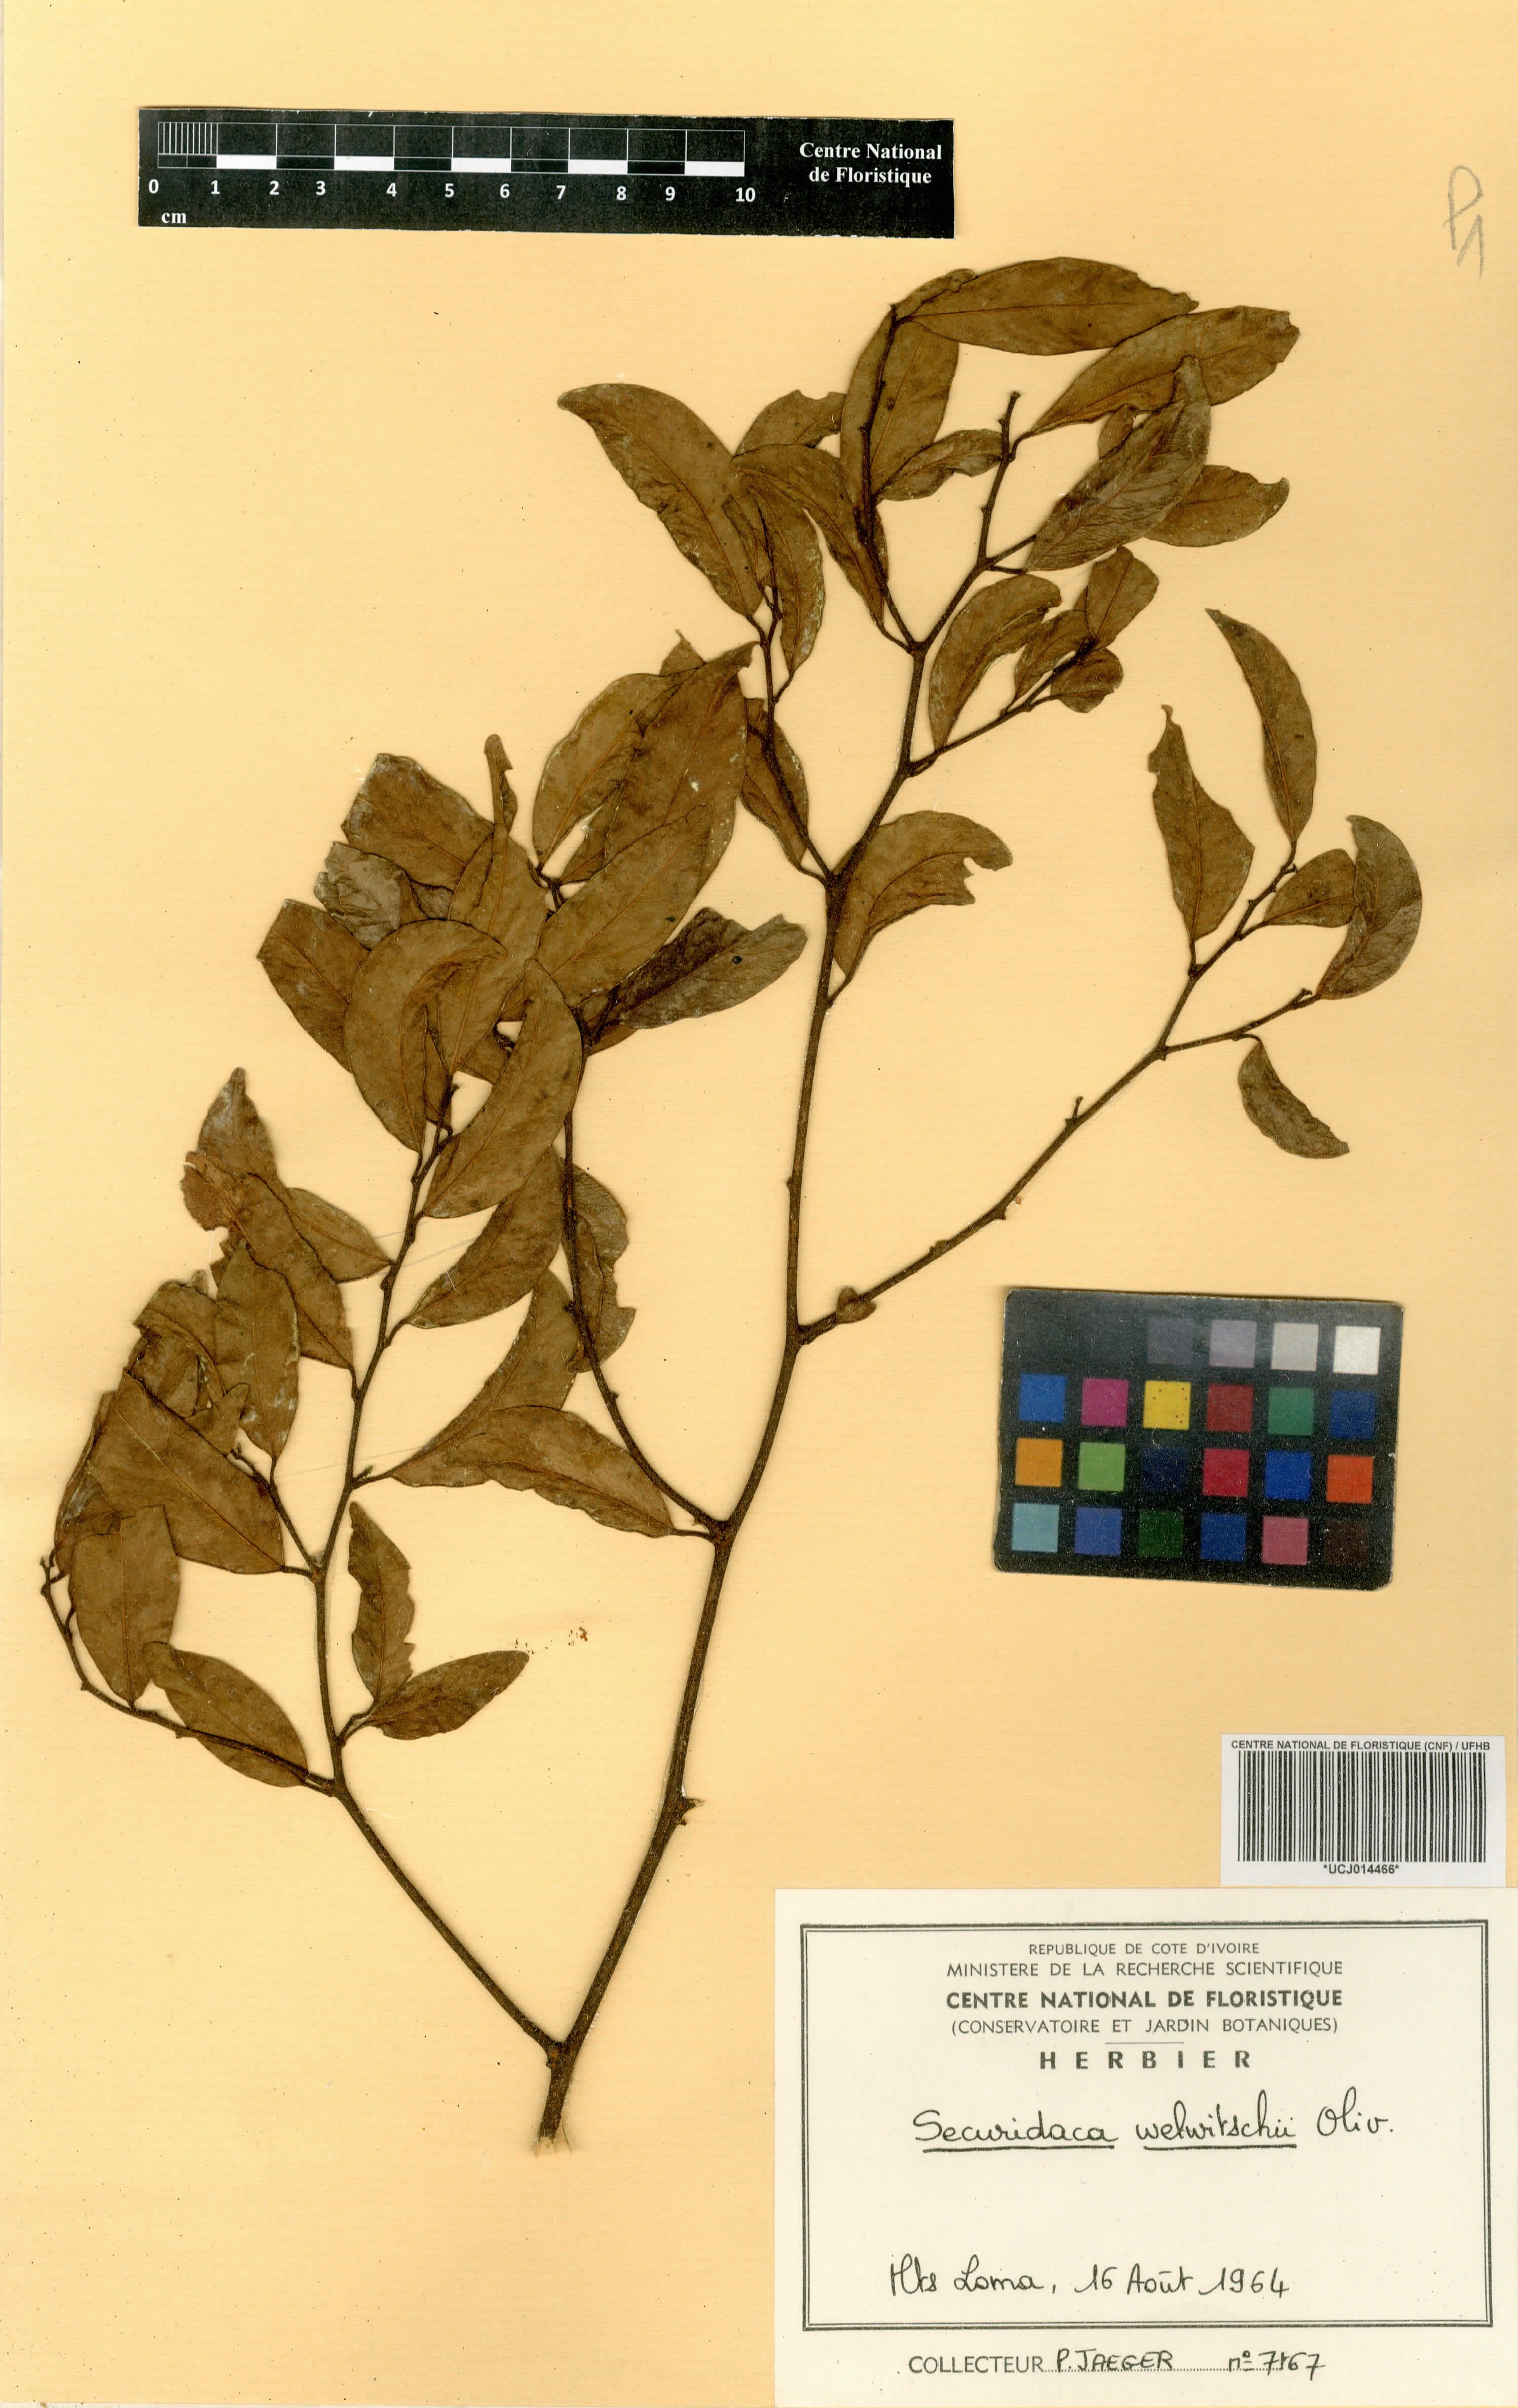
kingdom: Plantae
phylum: Tracheophyta
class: Magnoliopsida
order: Fabales
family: Polygalaceae
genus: Securidaca
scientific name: Securidaca welwitschii
